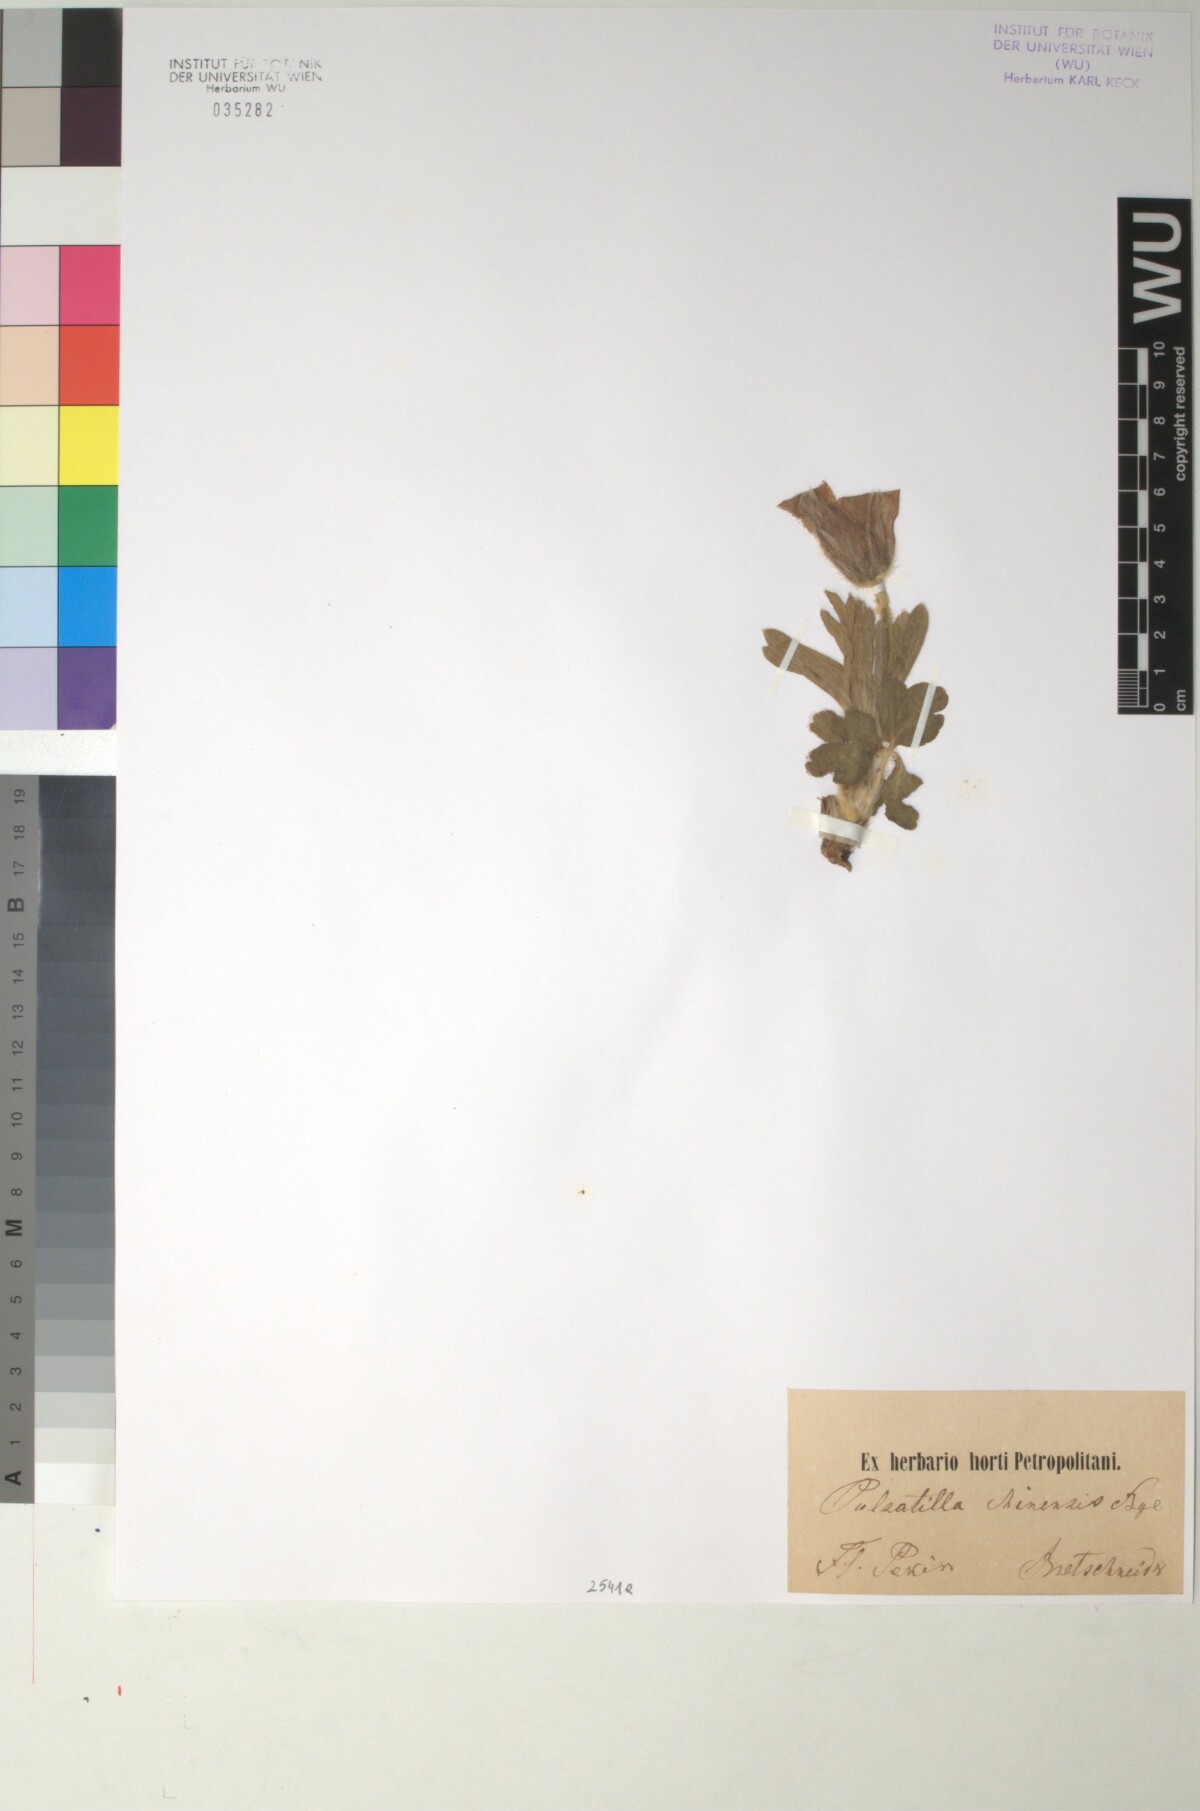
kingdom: Plantae
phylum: Tracheophyta
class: Magnoliopsida
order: Ranunculales
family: Ranunculaceae
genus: Pulsatilla
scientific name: Pulsatilla chinensis
